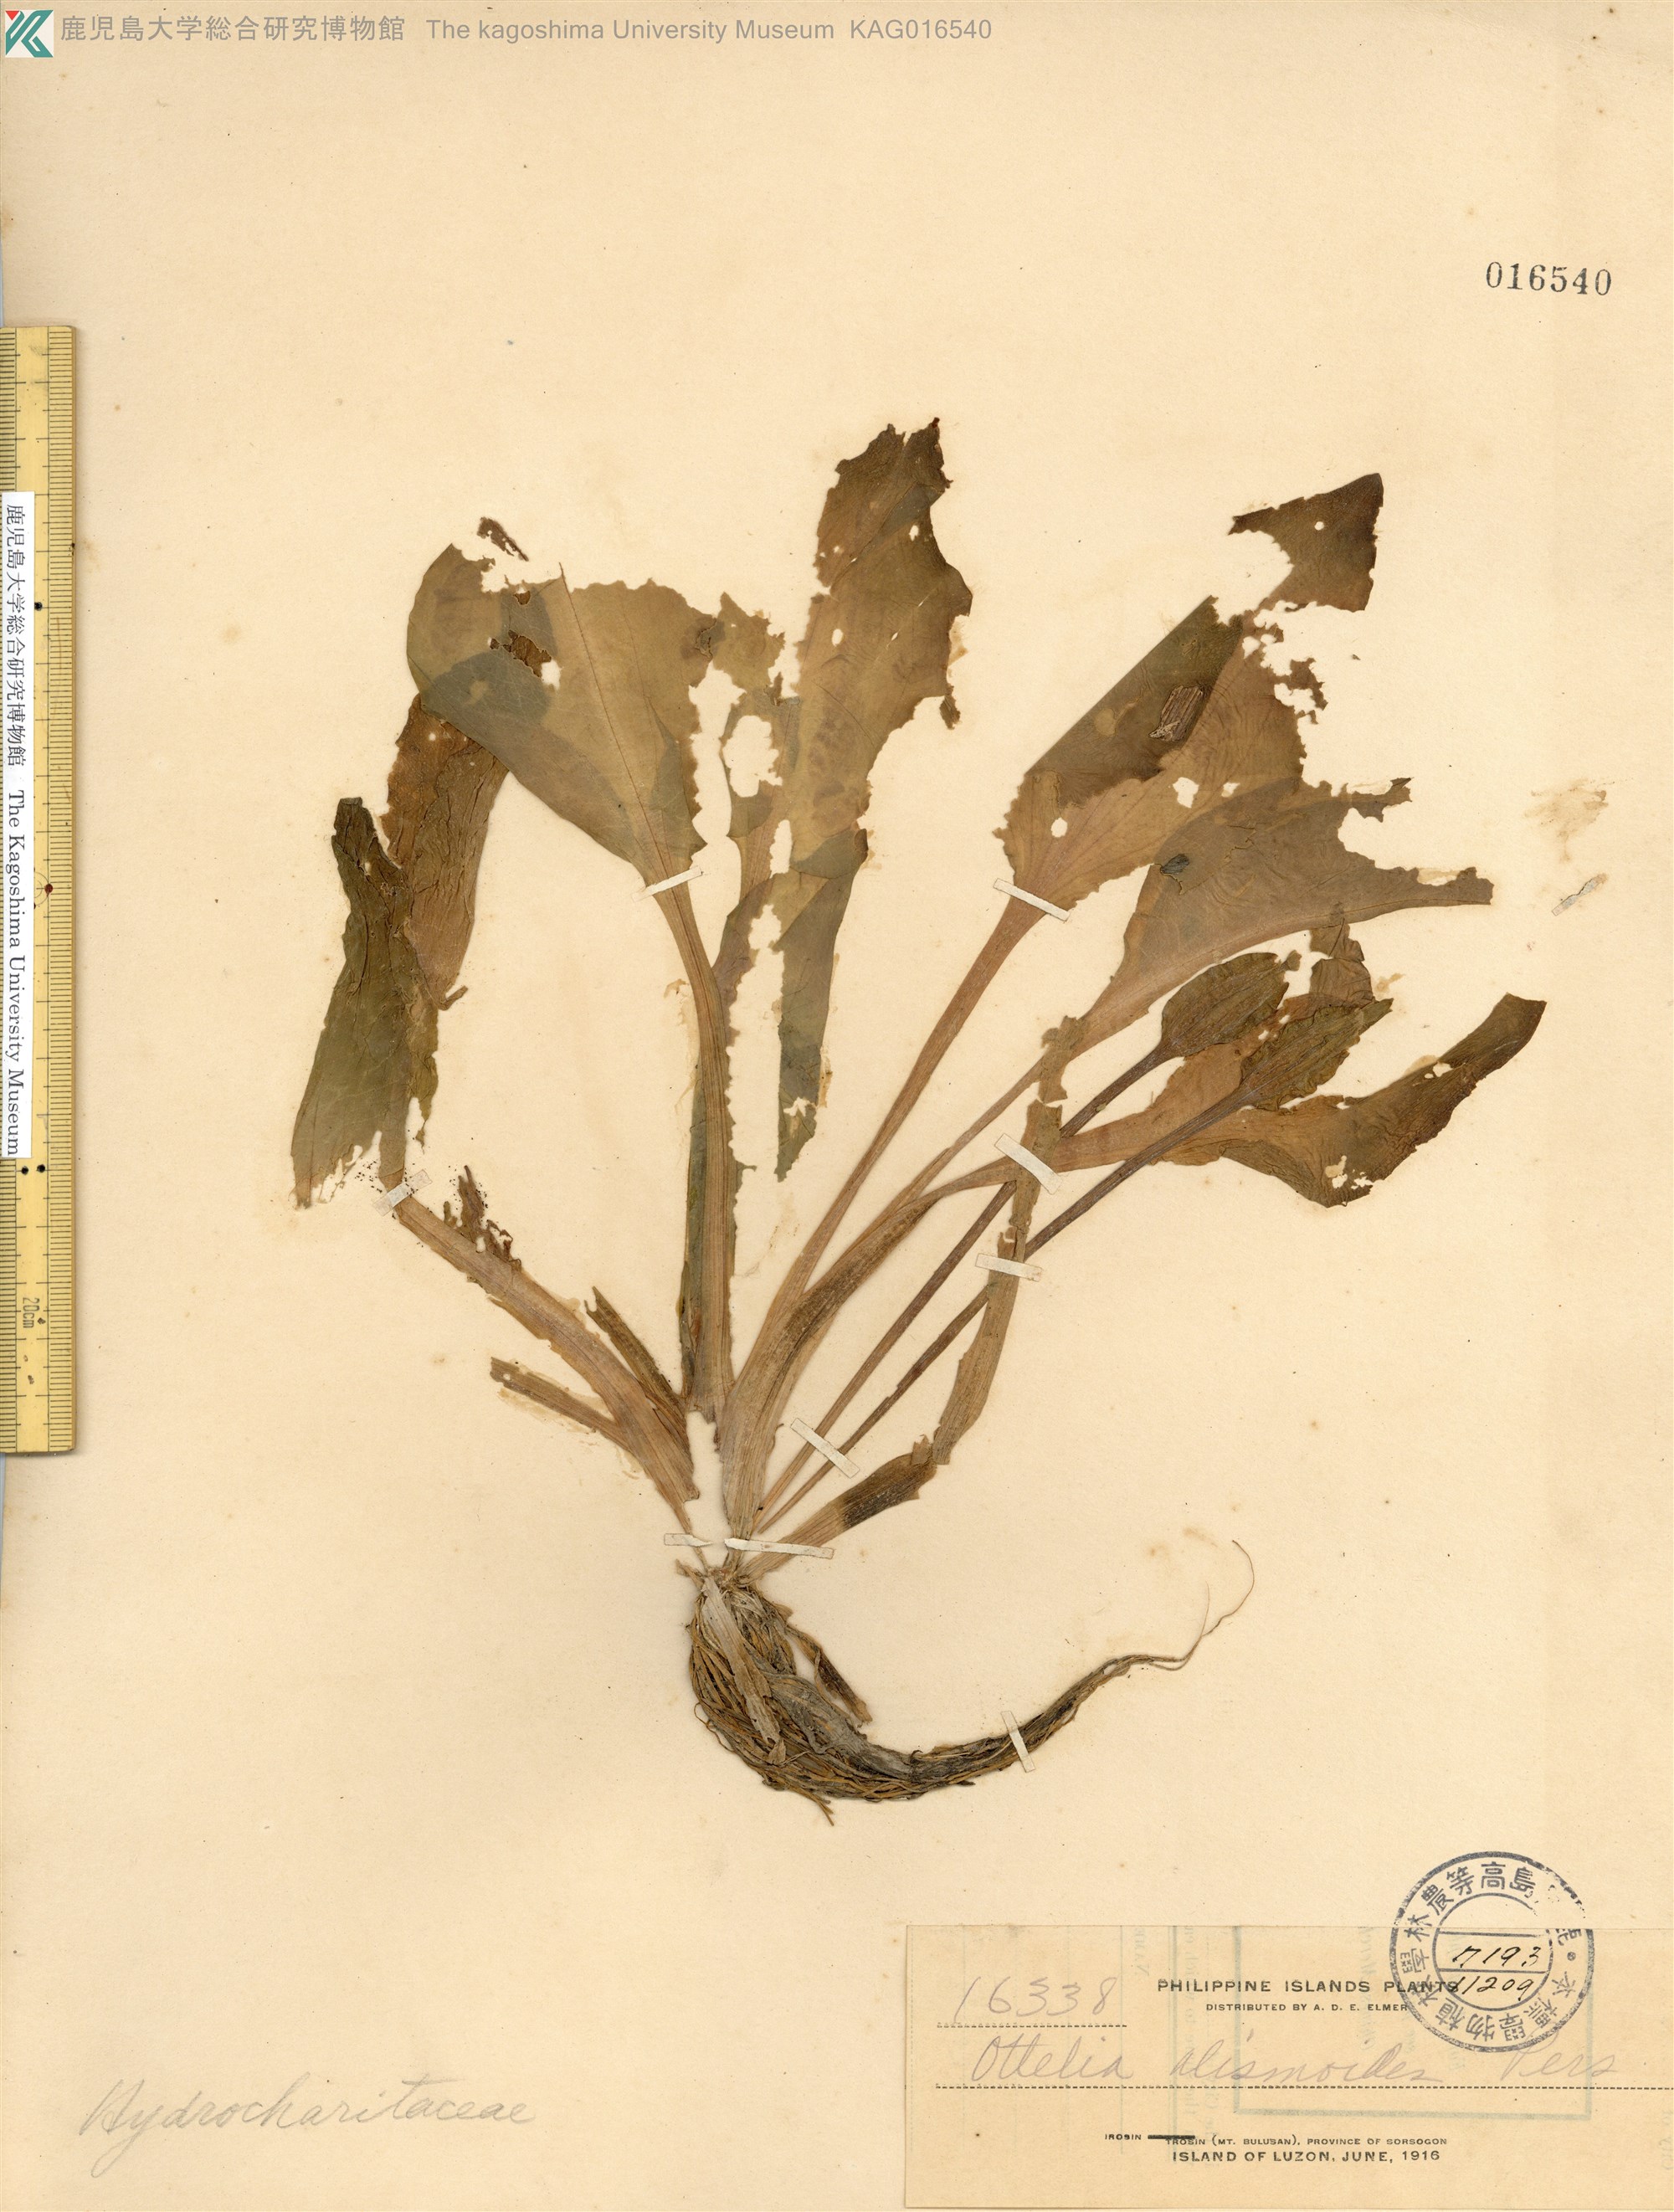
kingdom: Plantae
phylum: Tracheophyta
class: Liliopsida
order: Alismatales
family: Hydrocharitaceae
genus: Ottelia
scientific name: Ottelia alismoides
